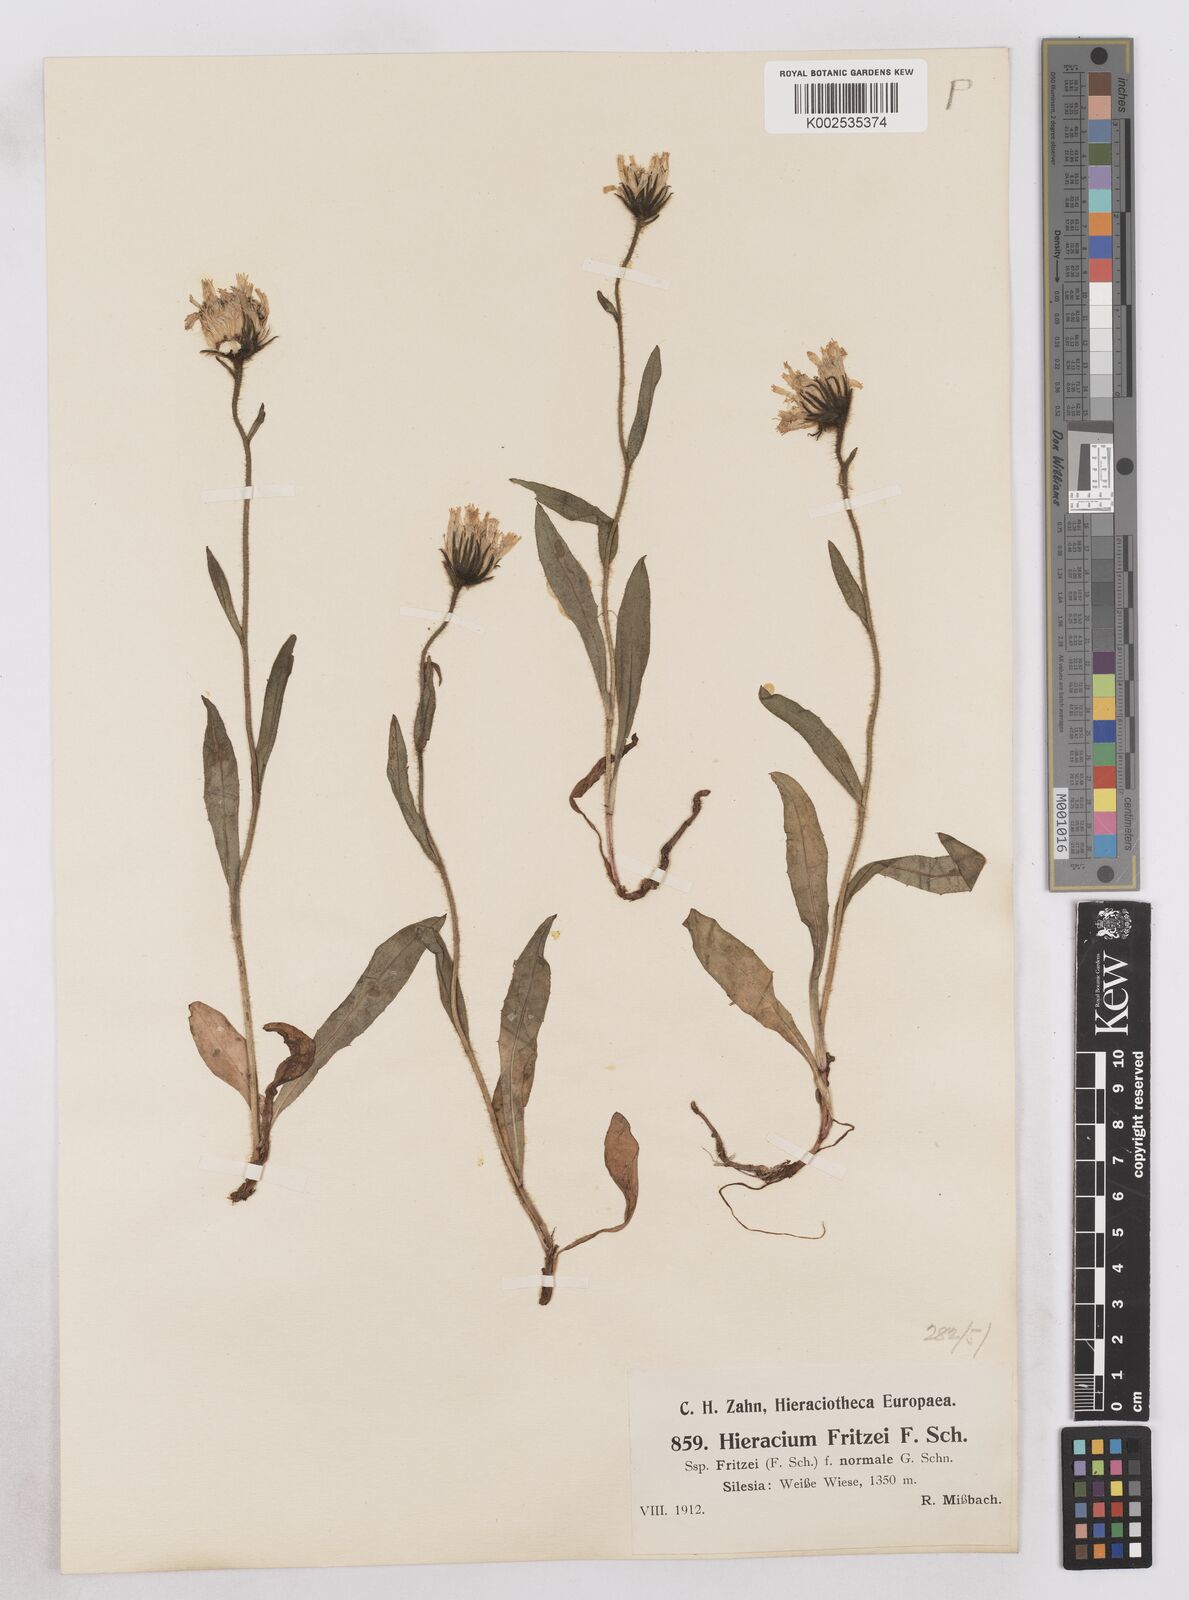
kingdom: Plantae
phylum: Tracheophyta
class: Magnoliopsida
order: Asterales
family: Asteraceae
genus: Hieracium
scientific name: Hieracium fritzei
